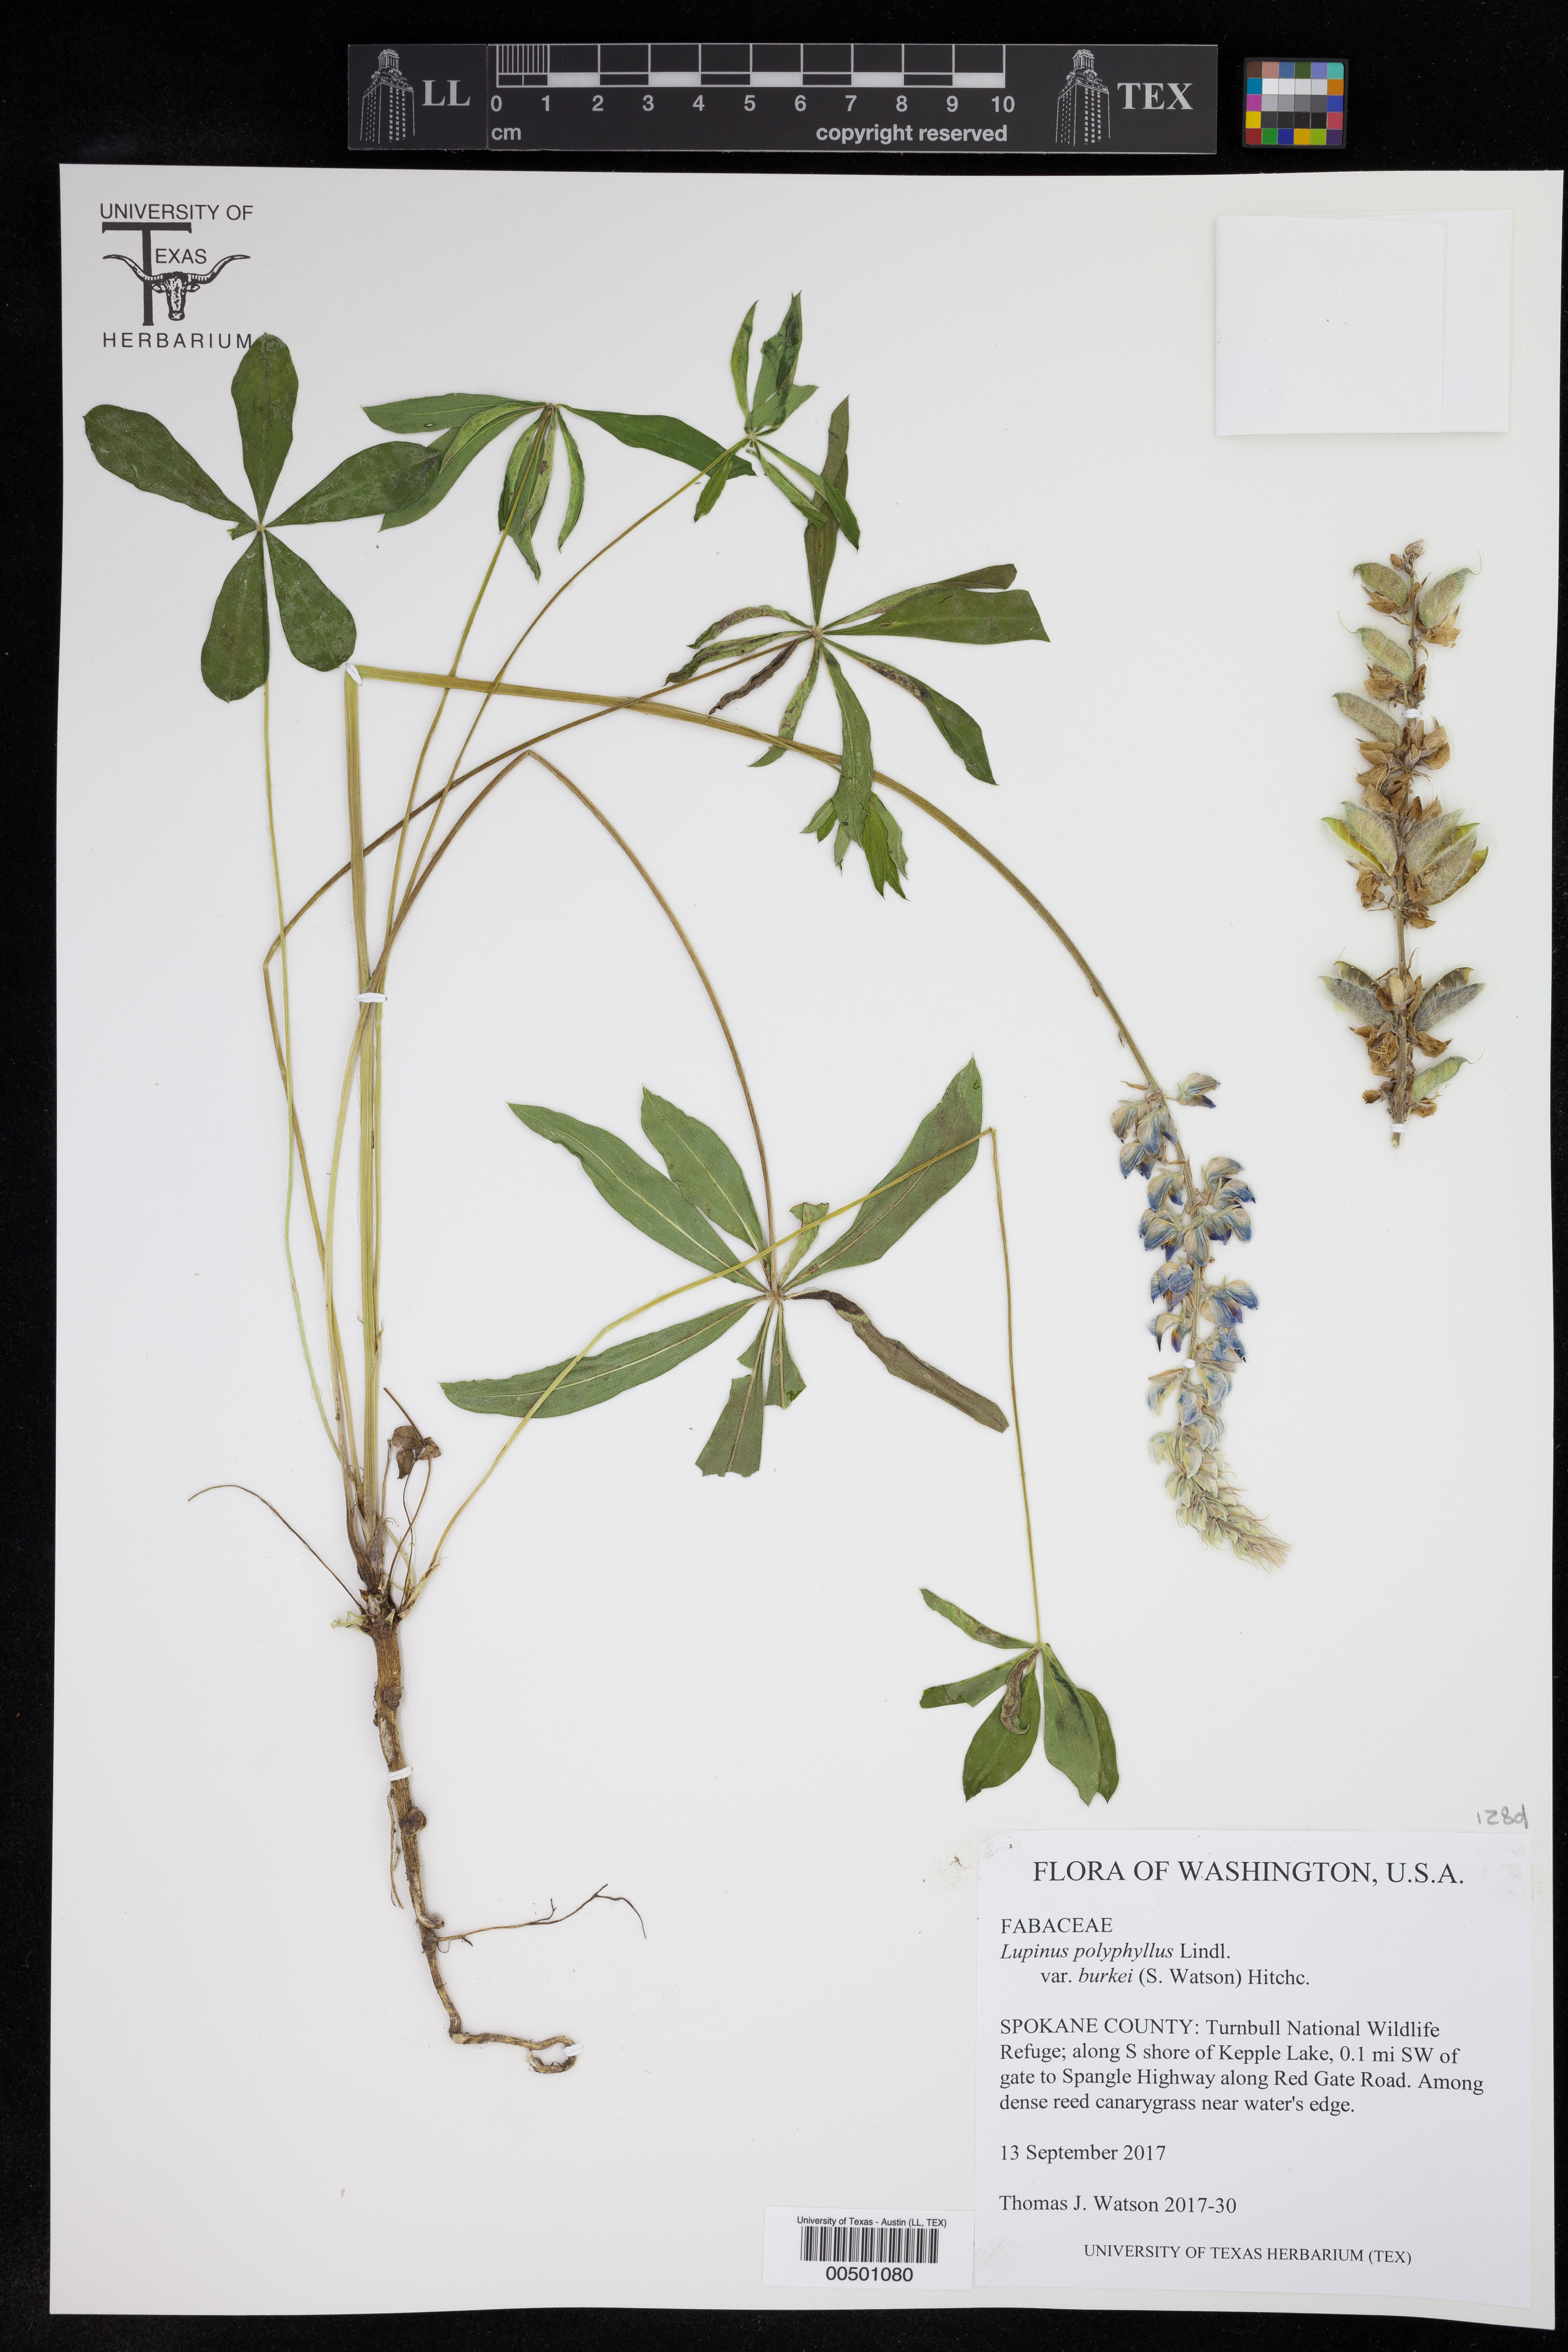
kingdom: Plantae
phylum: Tracheophyta
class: Magnoliopsida
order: Fabales
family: Fabaceae
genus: Lupinus
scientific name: Lupinus burkei
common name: Largeleaf lupine
